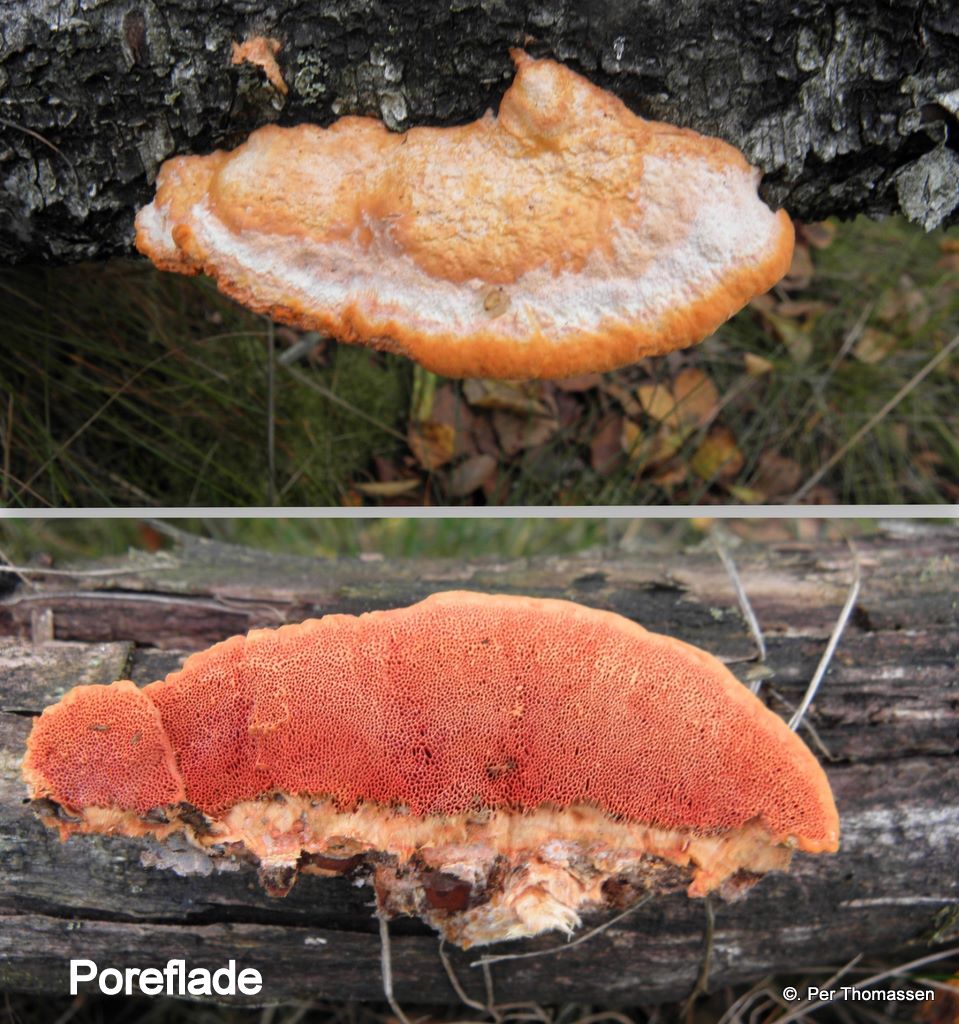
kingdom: Fungi
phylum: Basidiomycota
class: Agaricomycetes
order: Polyporales
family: Polyporaceae
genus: Trametes
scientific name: Trametes cinnabarina
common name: cinnoberporesvamp
